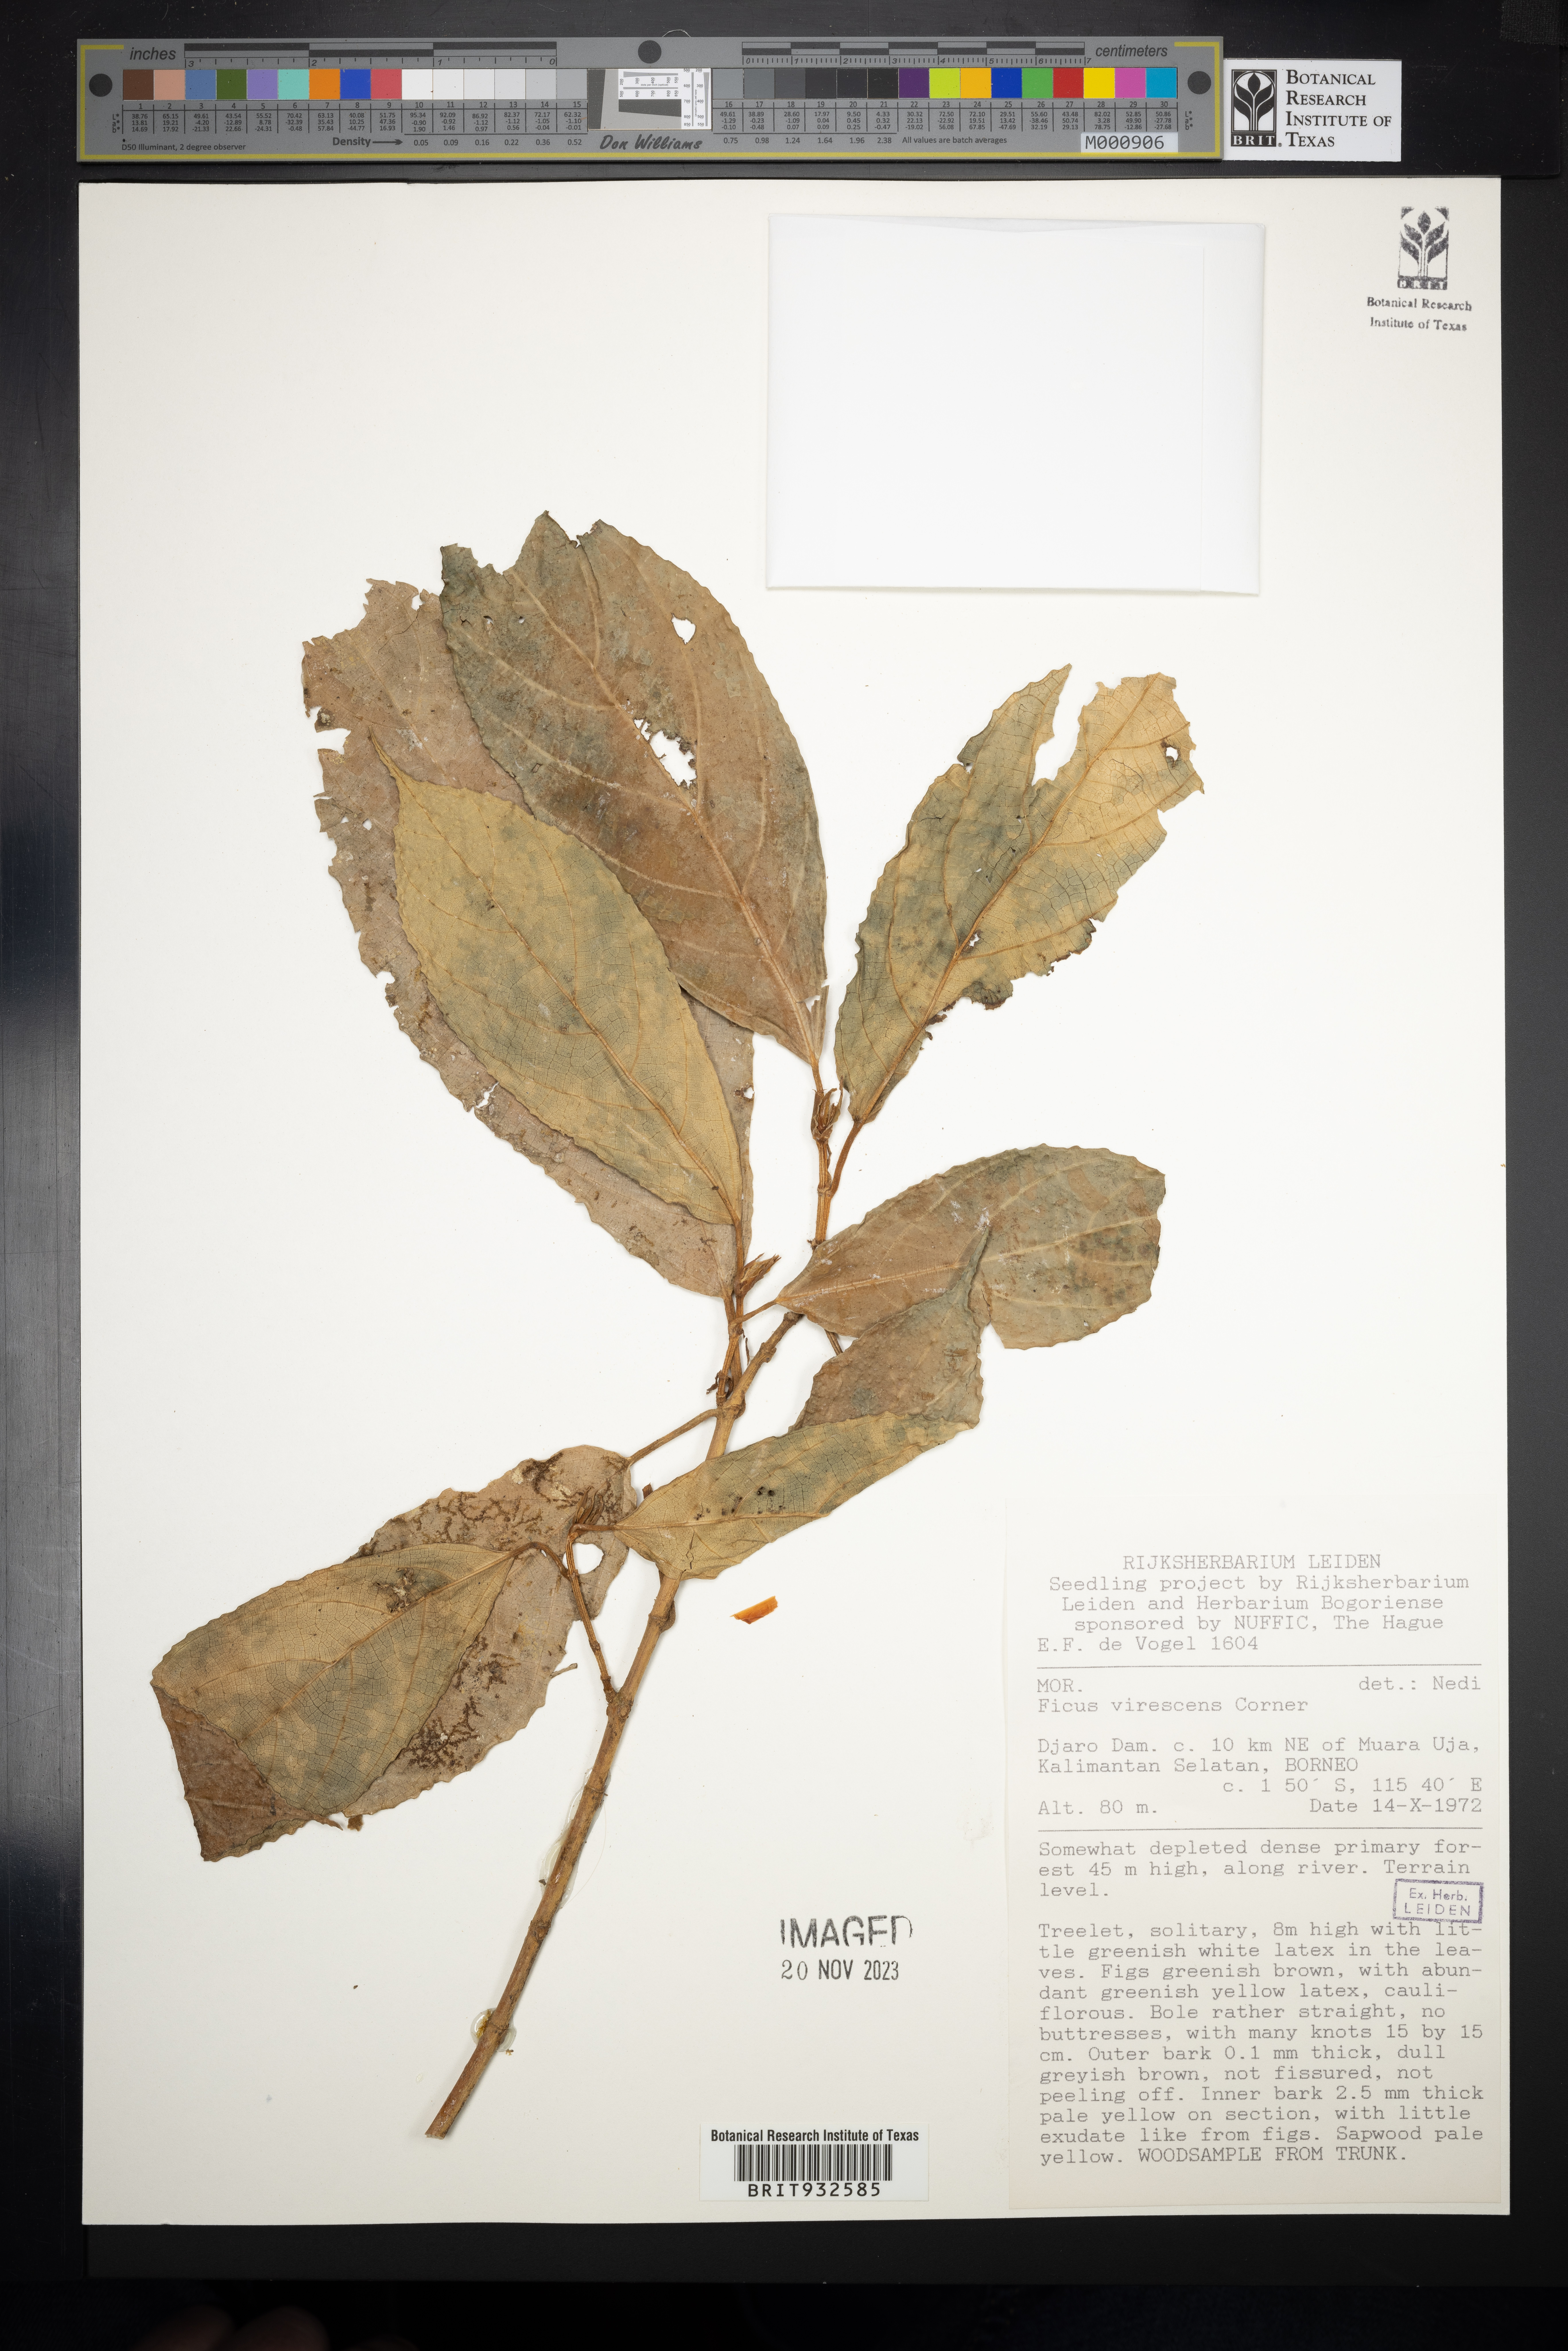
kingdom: Plantae
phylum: Tracheophyta
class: Magnoliopsida
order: Rosales
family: Moraceae
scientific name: Moraceae
